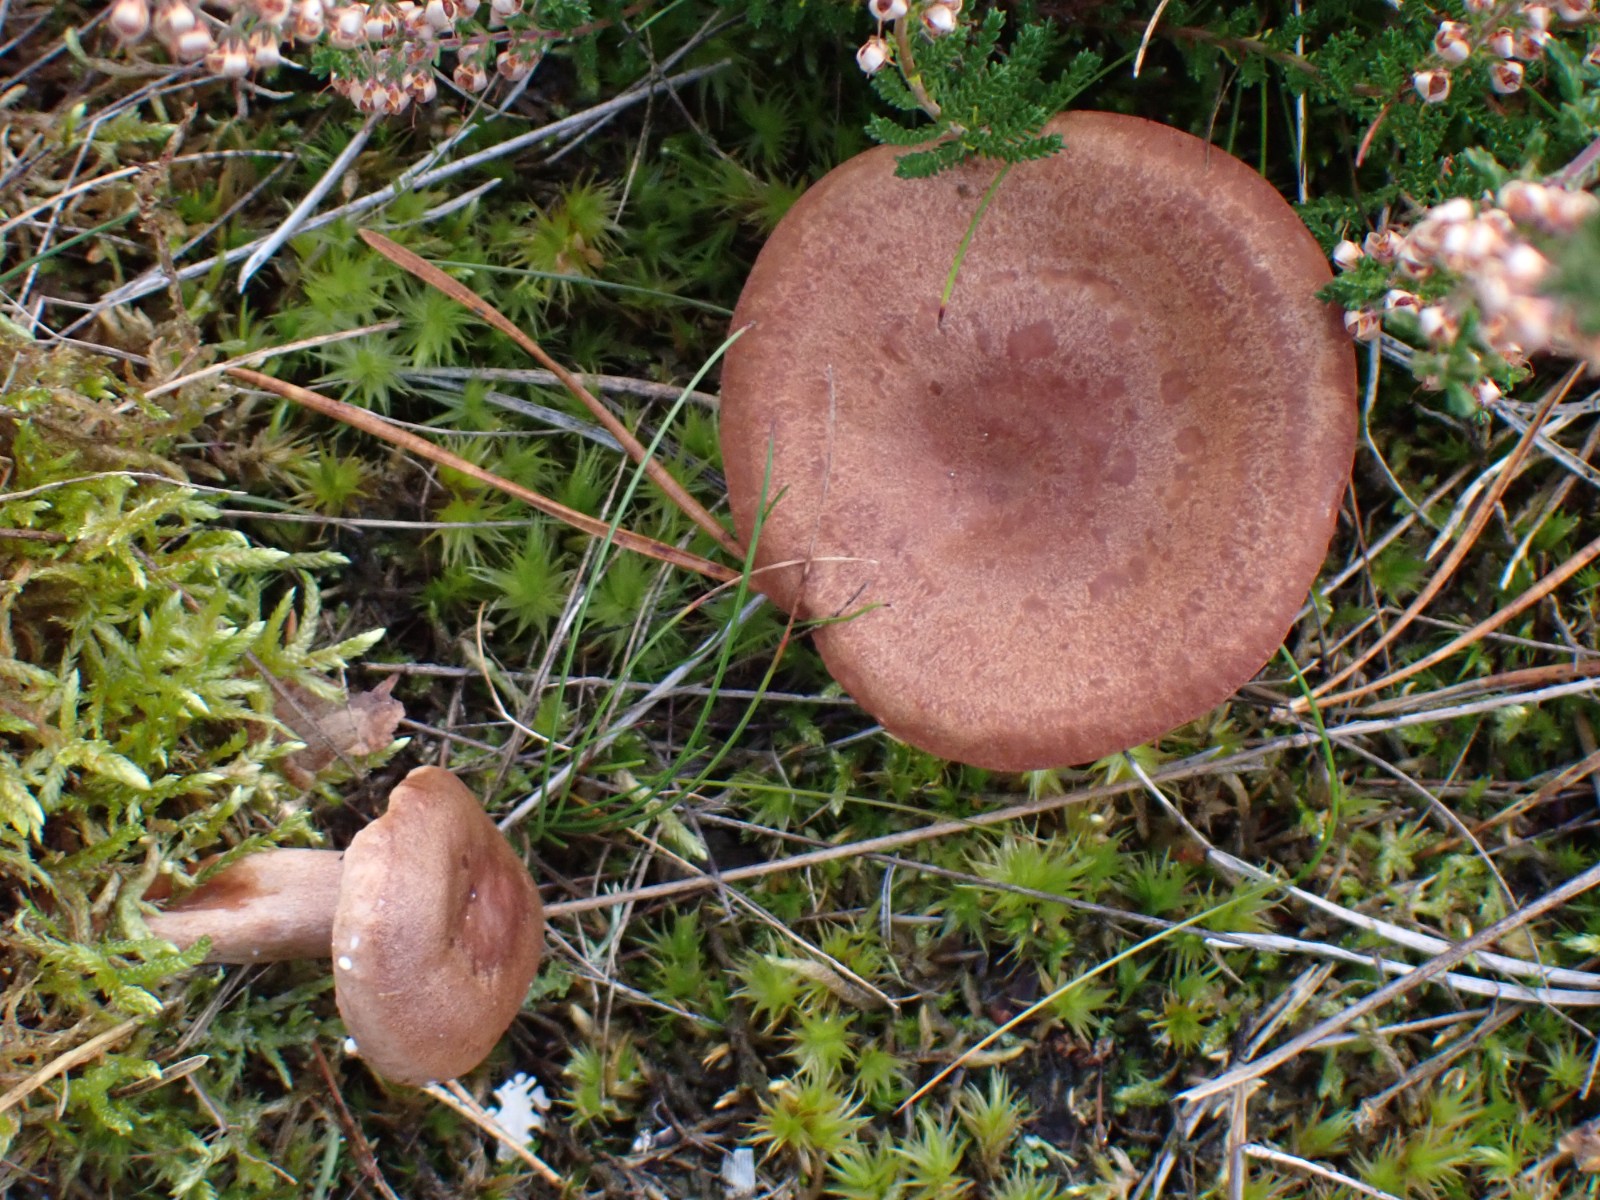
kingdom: Fungi
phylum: Basidiomycota
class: Agaricomycetes
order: Russulales
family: Russulaceae
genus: Lactarius
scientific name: Lactarius quietus
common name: ege-mælkehat
